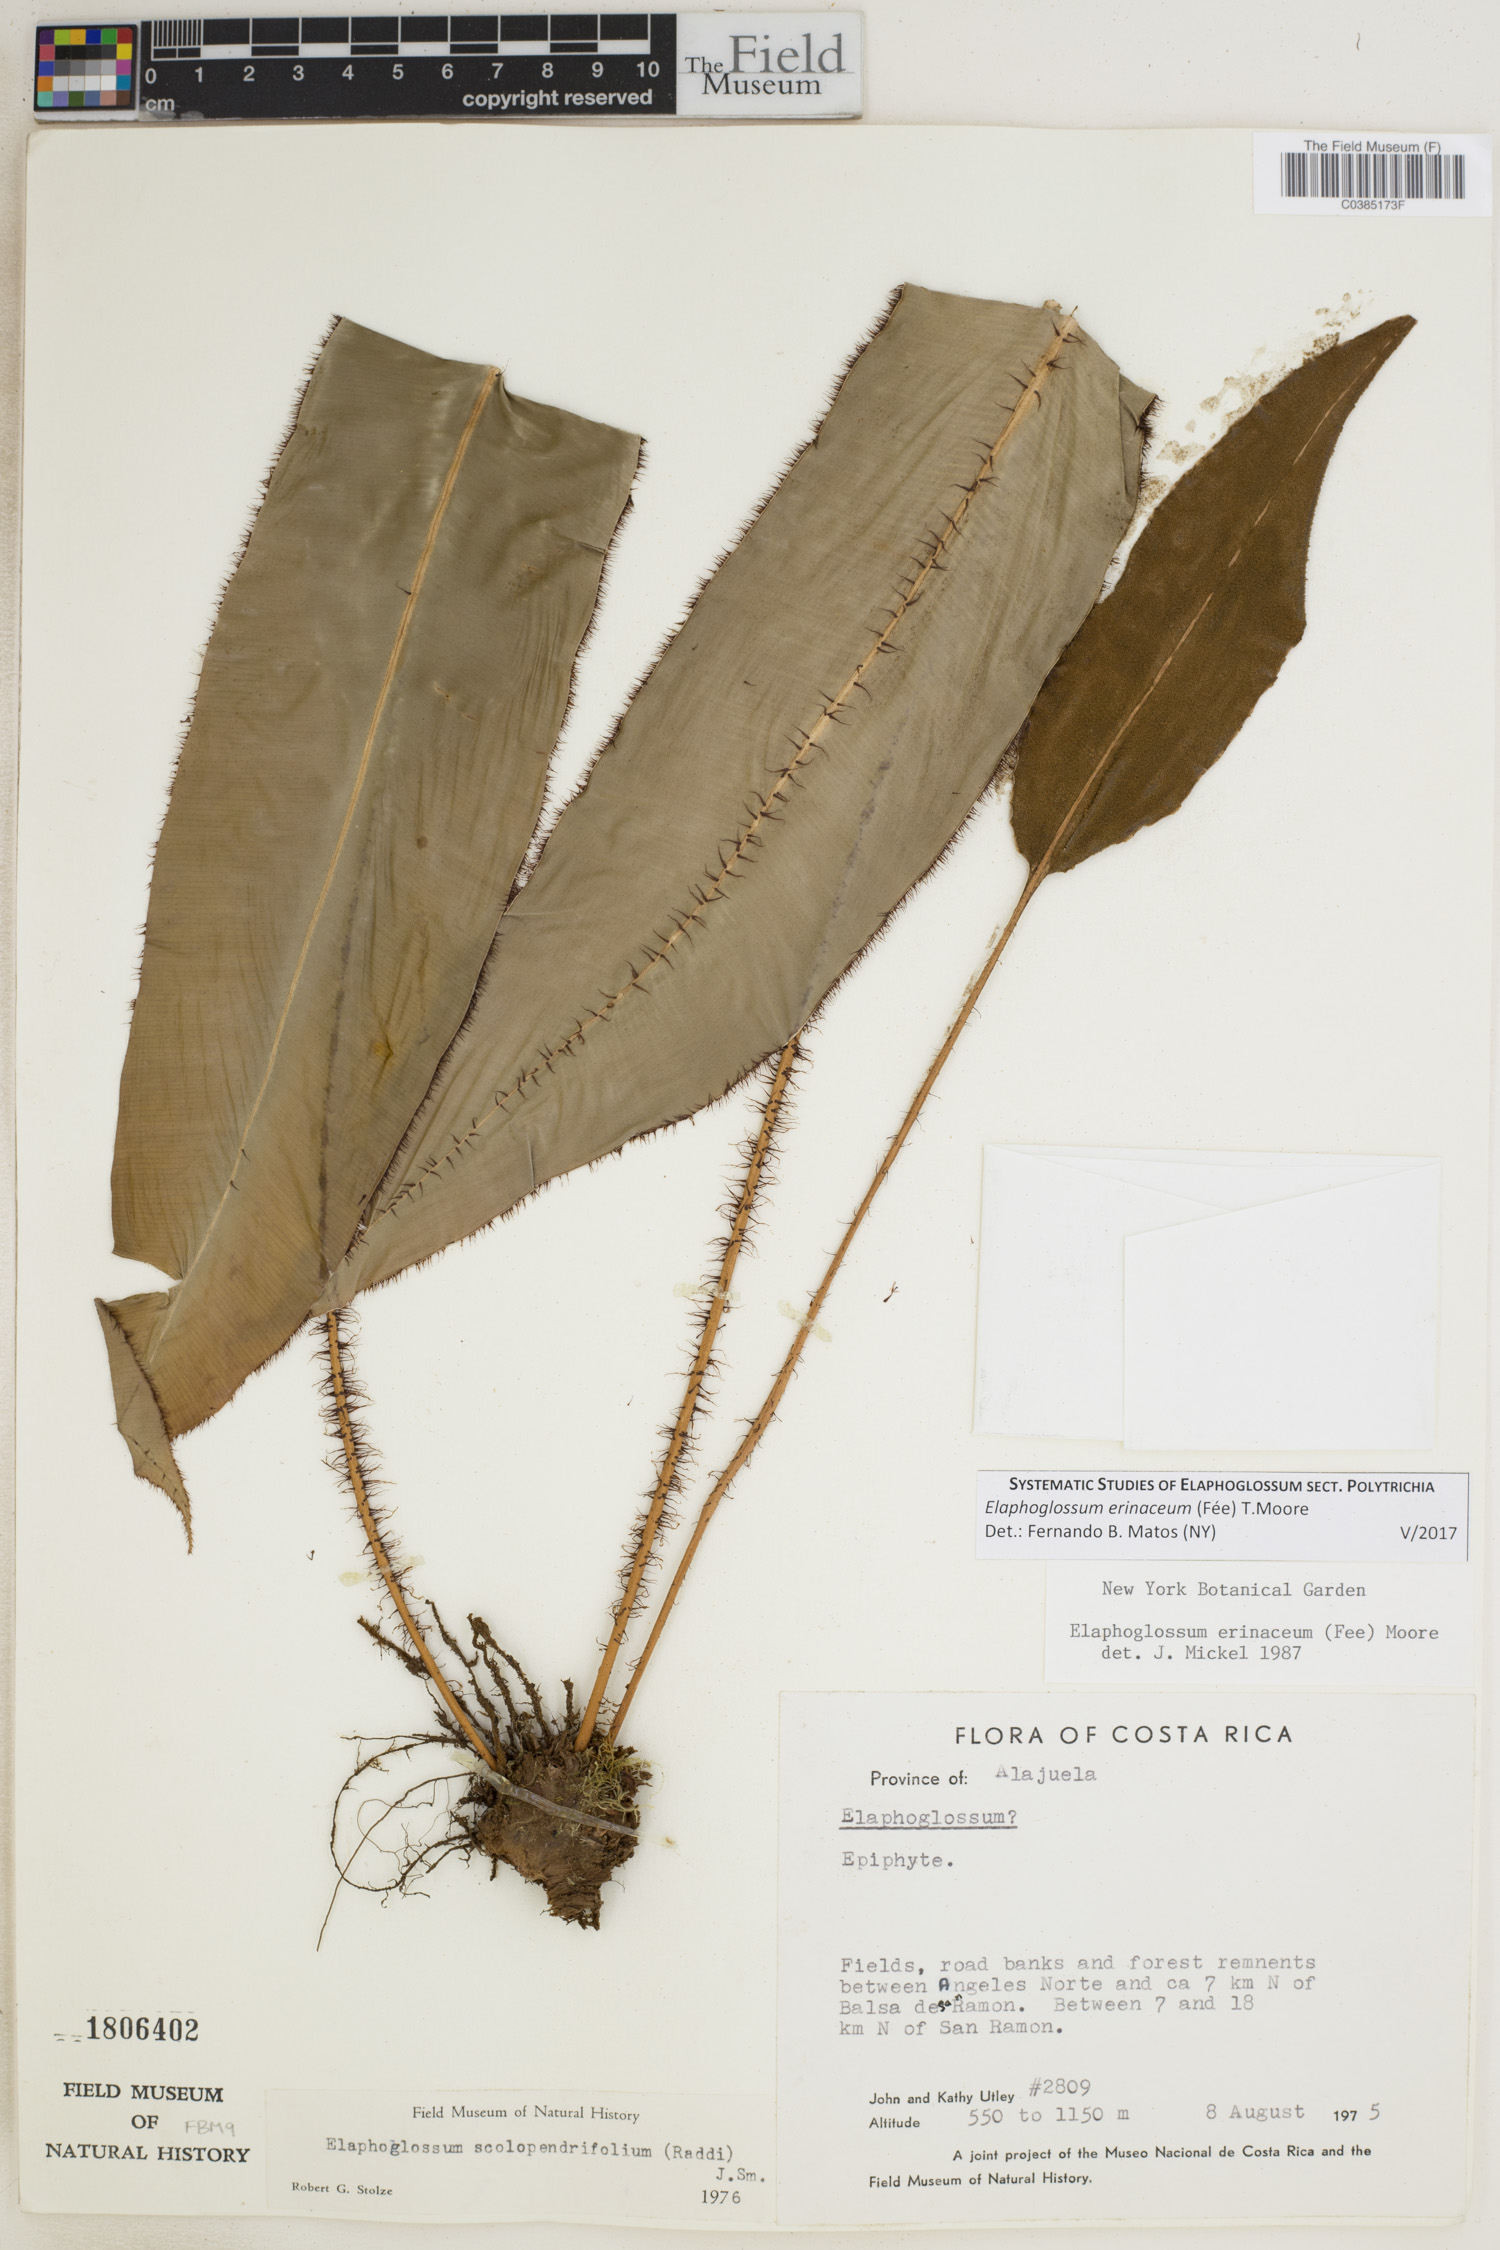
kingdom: Plantae
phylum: Tracheophyta
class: Polypodiopsida
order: Polypodiales
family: Dryopteridaceae
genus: Elaphoglossum
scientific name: Elaphoglossum erinaceum
